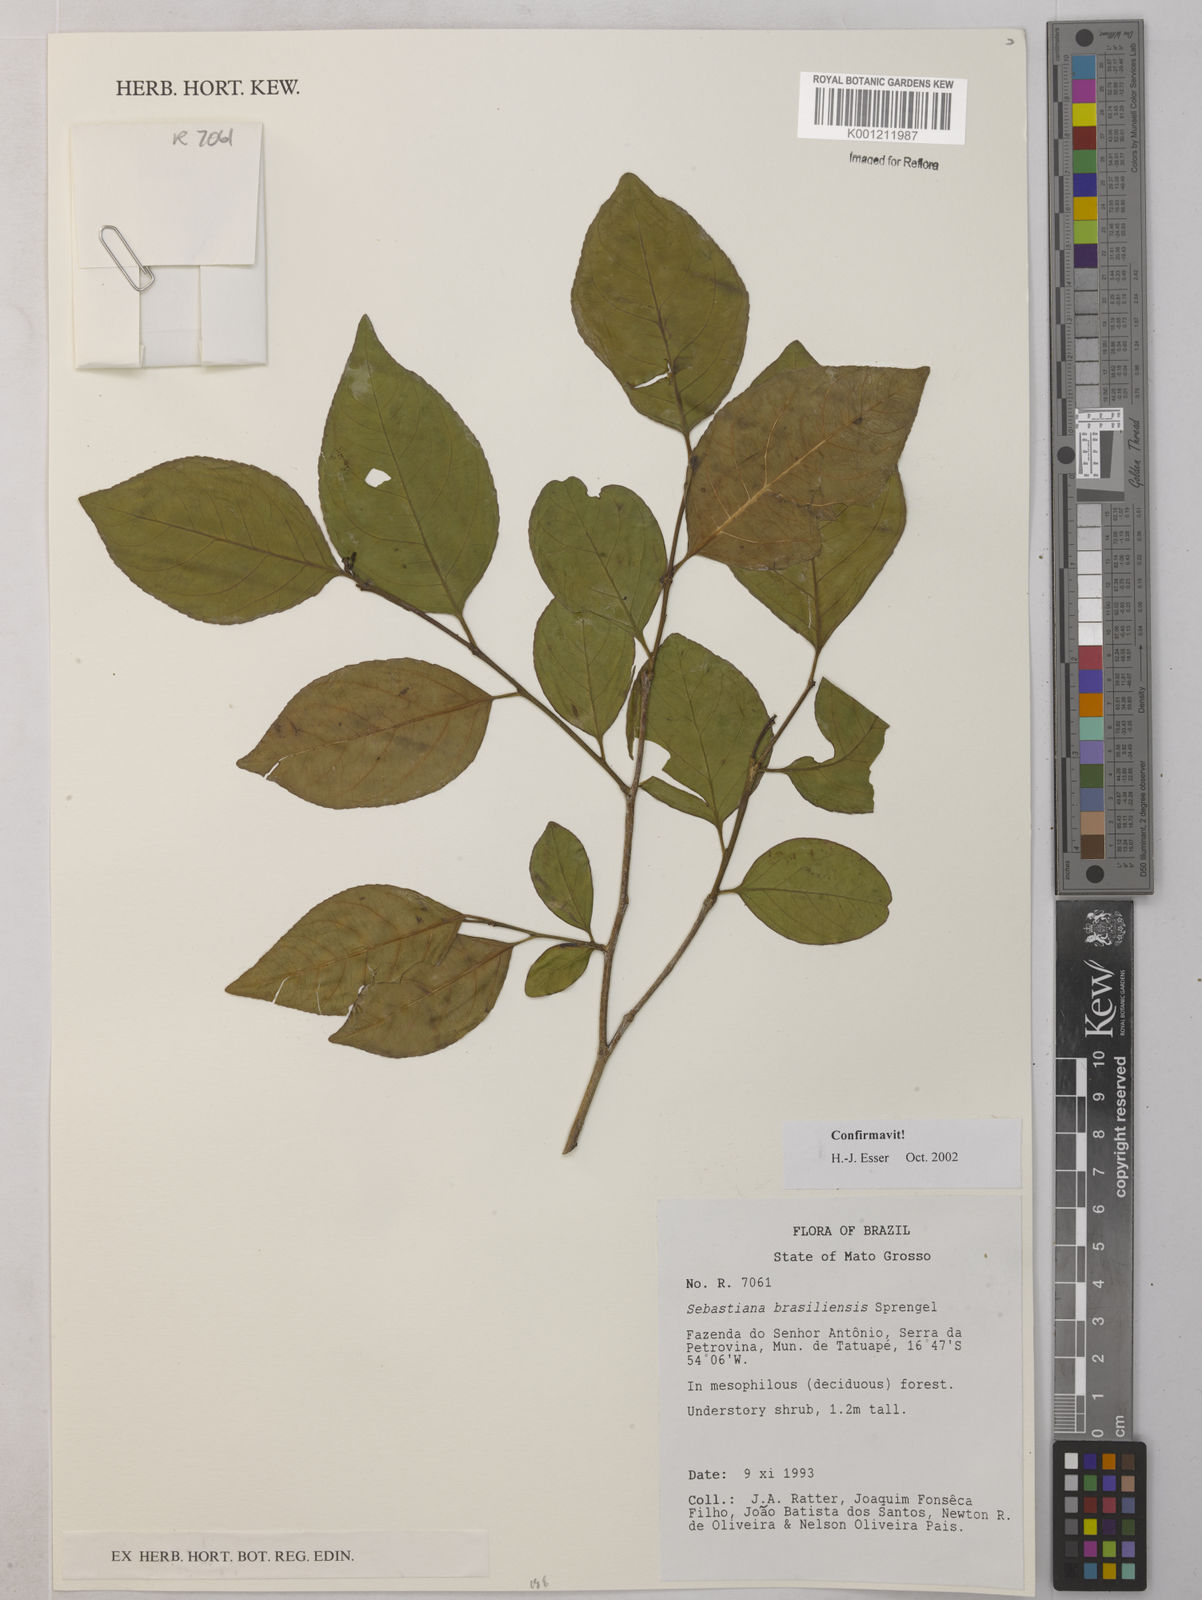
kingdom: Plantae
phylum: Tracheophyta
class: Magnoliopsida
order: Malpighiales
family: Euphorbiaceae
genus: Sebastiania
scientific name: Sebastiania brasiliensis
